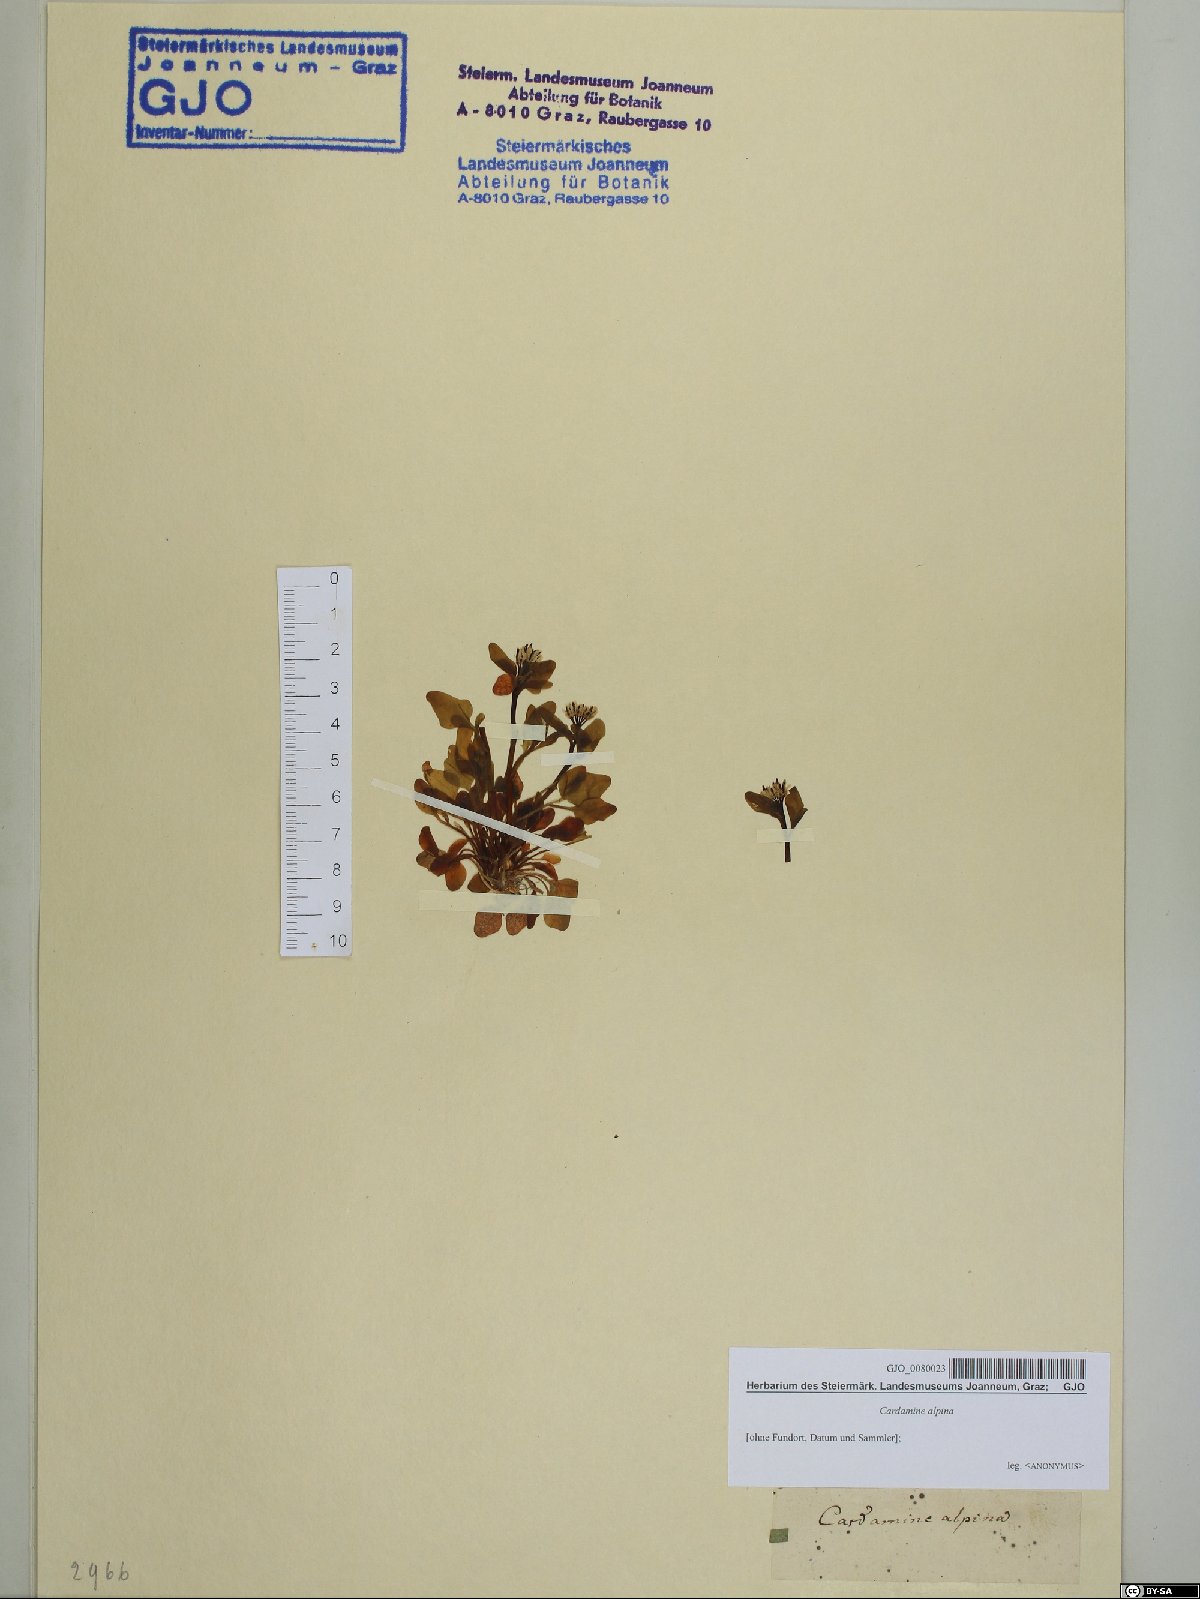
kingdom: Plantae
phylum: Tracheophyta
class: Magnoliopsida
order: Brassicales
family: Brassicaceae
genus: Cardamine
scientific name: Cardamine bellidifolia
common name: Alpine bittercress
